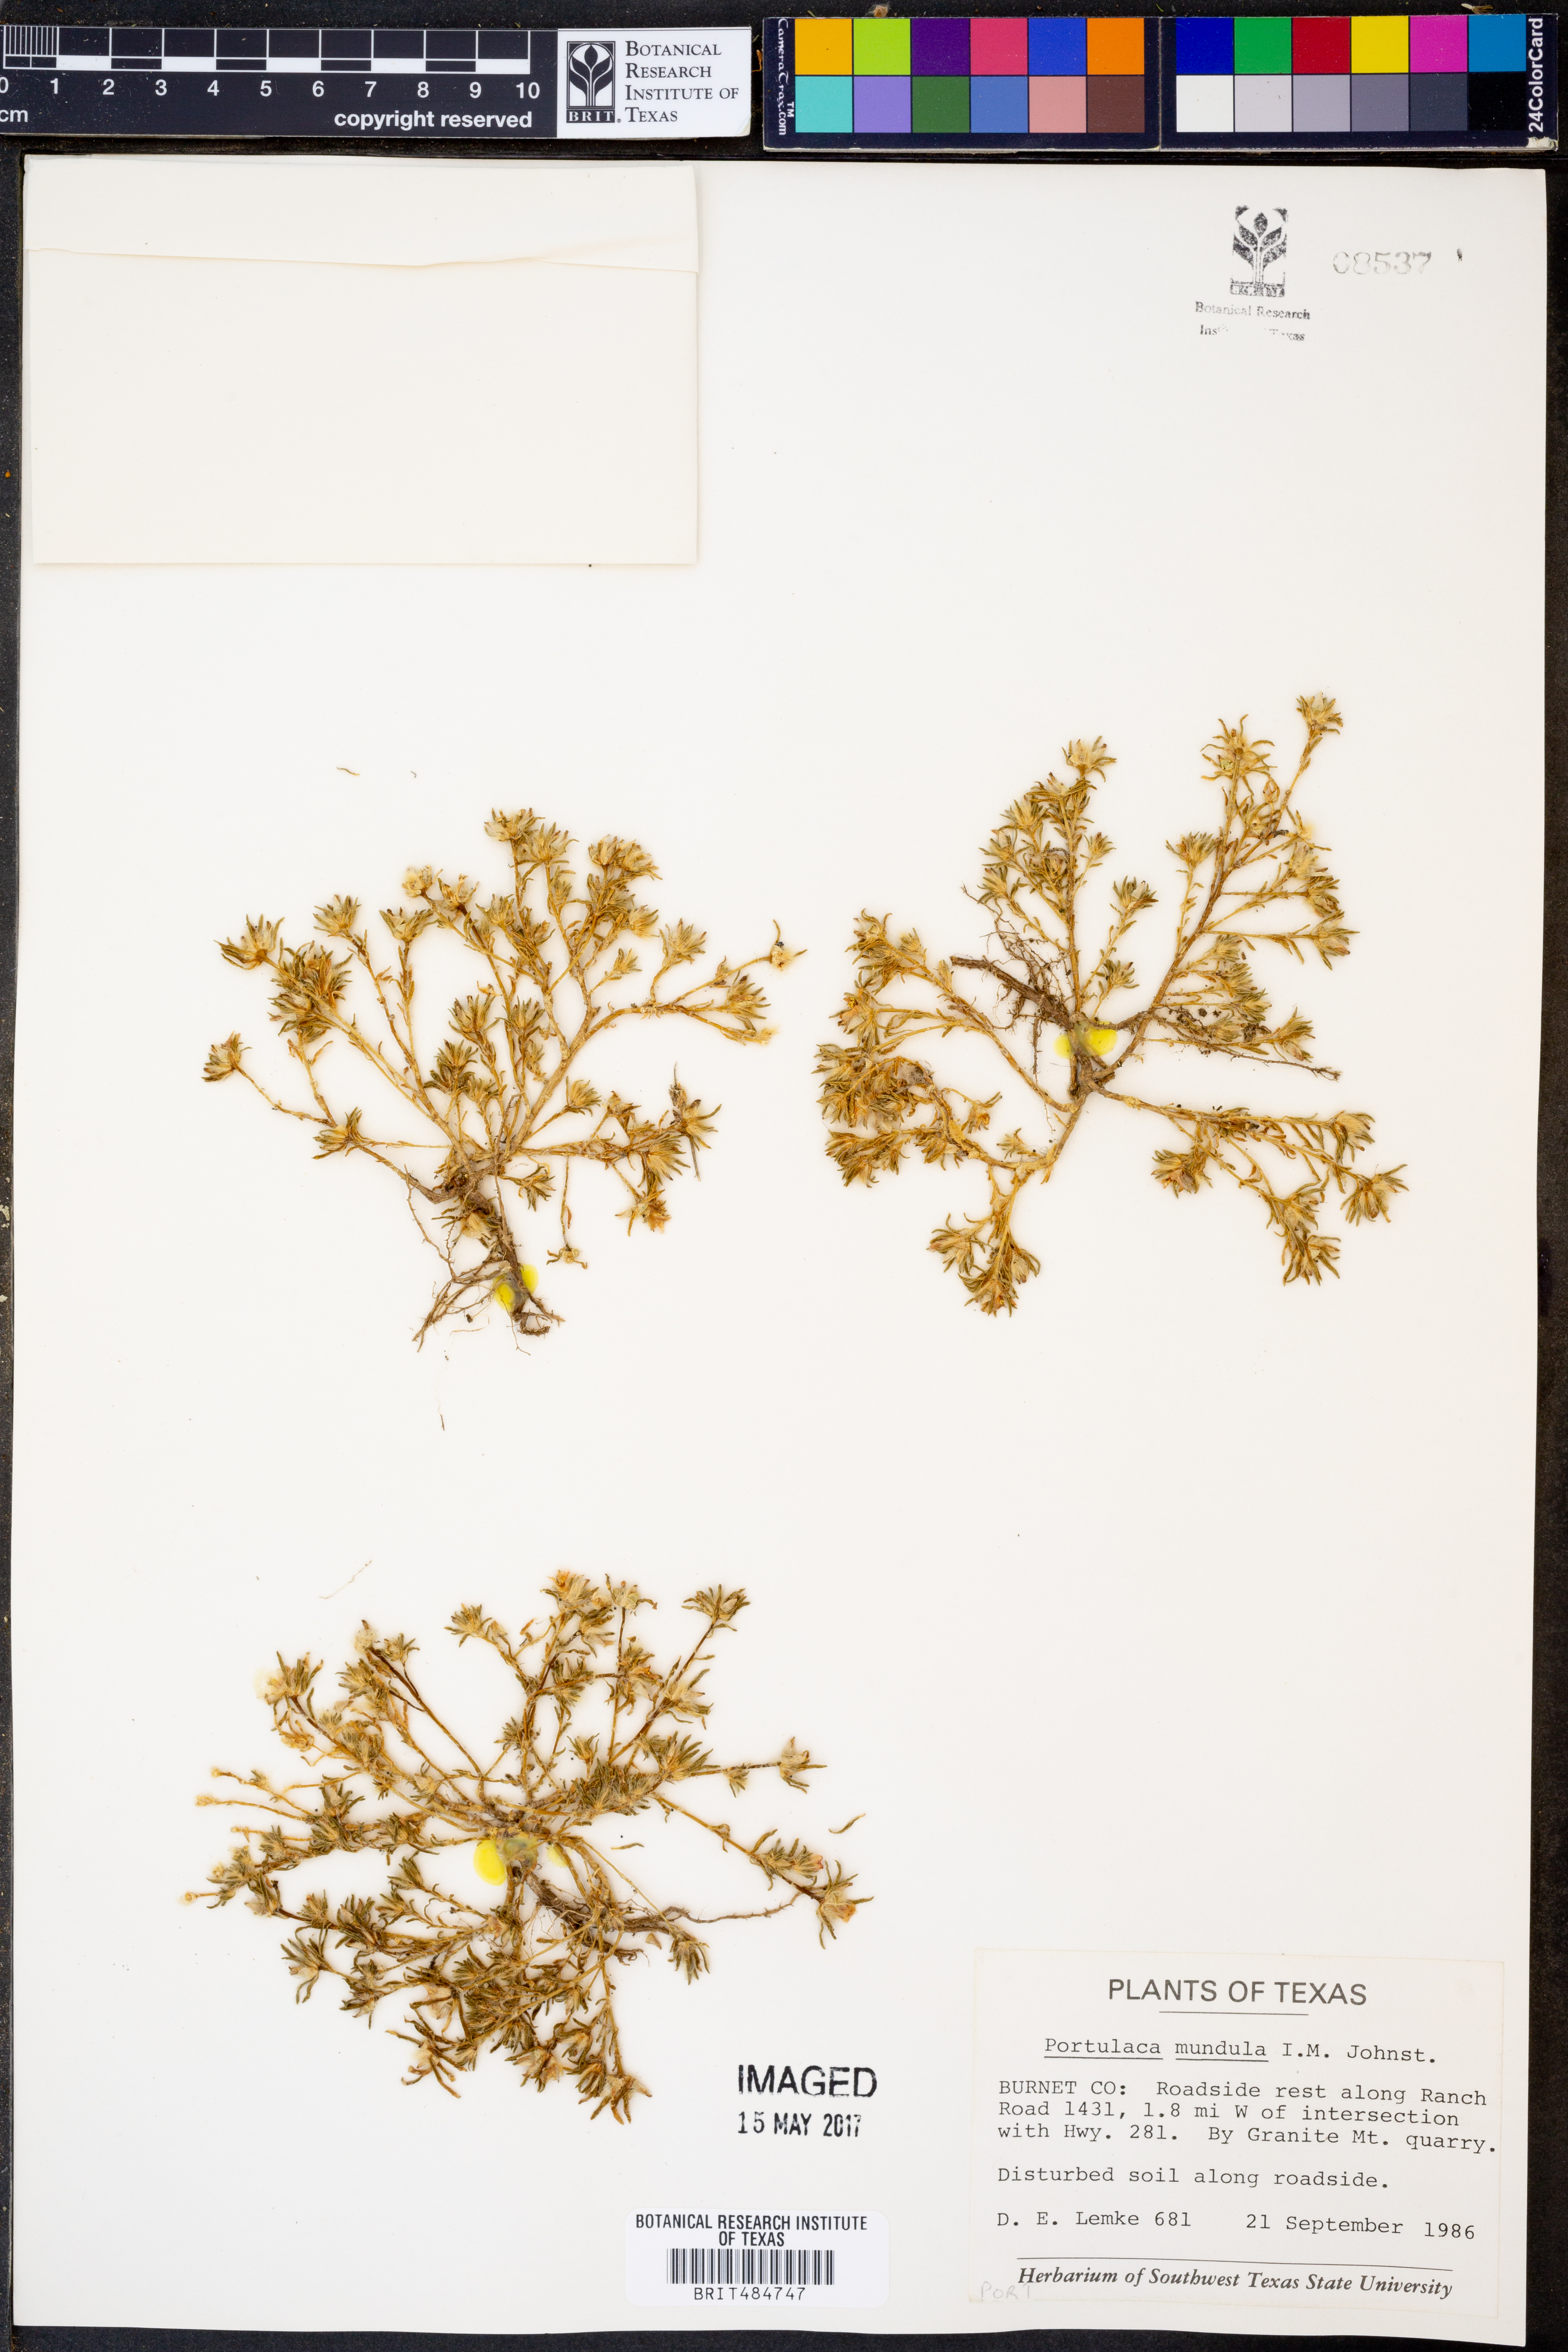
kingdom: Plantae
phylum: Tracheophyta
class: Magnoliopsida
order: Caryophyllales
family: Portulacaceae
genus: Portulaca
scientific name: Portulaca pilosa
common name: Kiss me quick
